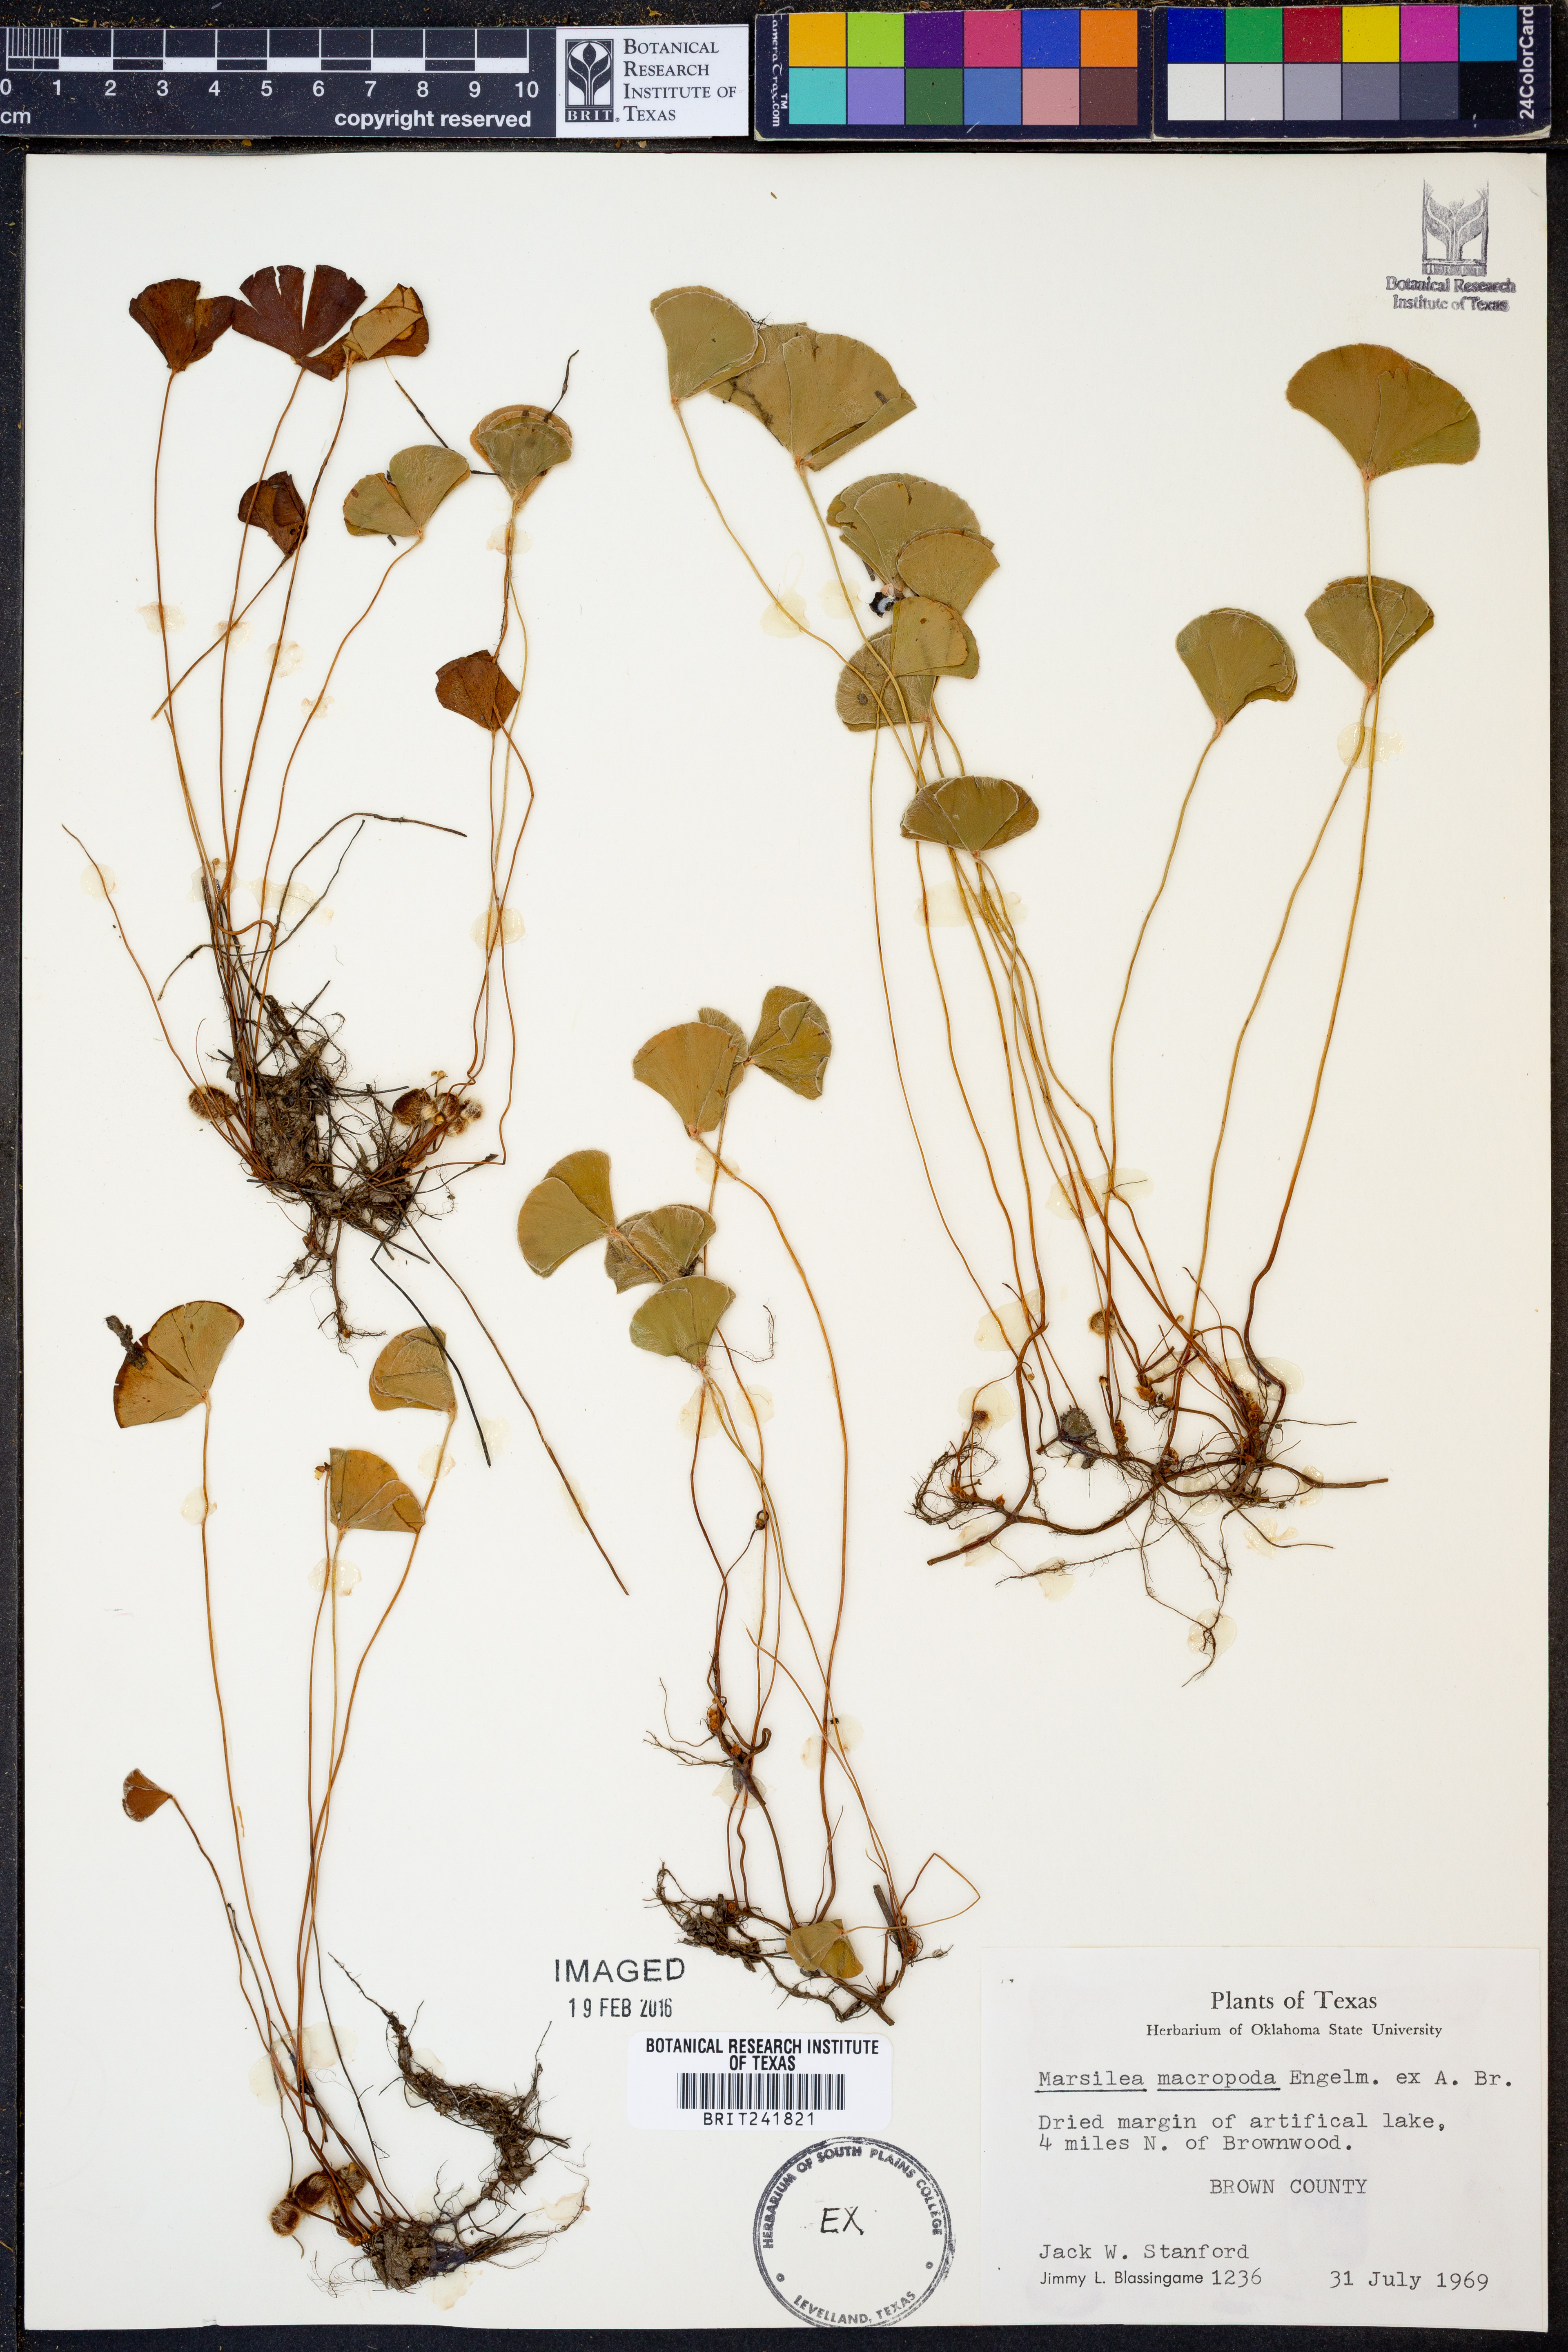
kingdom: Plantae
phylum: Tracheophyta
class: Polypodiopsida
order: Salviniales
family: Marsileaceae
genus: Marsilea
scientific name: Marsilea macropoda
